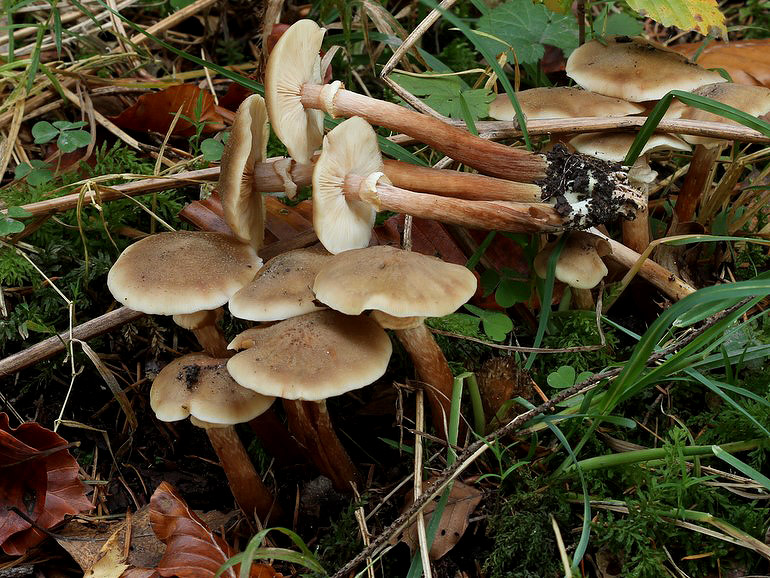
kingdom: Fungi
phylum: Basidiomycota
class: Agaricomycetes
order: Agaricales
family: Physalacriaceae
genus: Armillaria
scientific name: Armillaria mellea
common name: ægte honningsvamp
